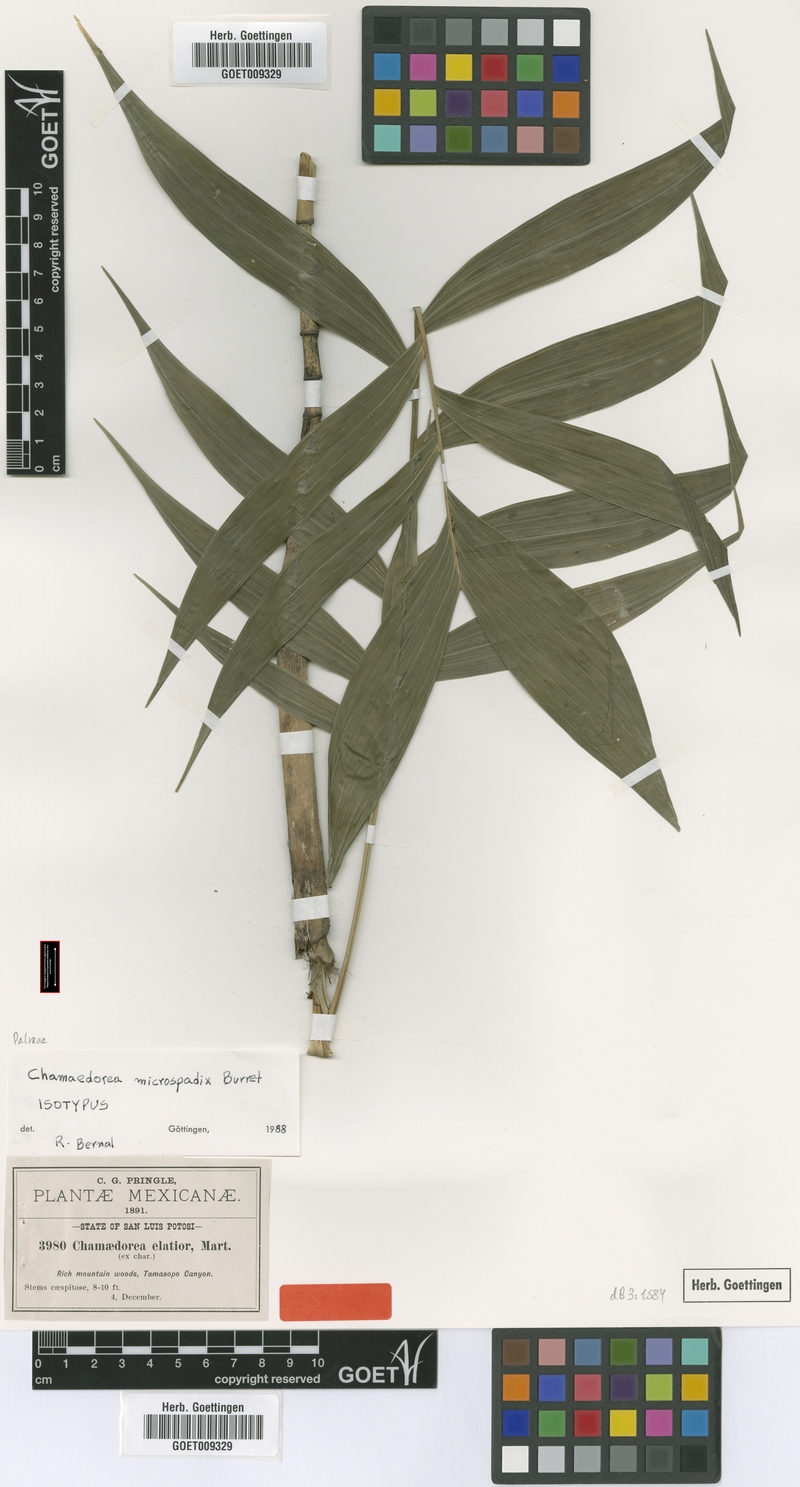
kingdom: Plantae
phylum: Tracheophyta
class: Liliopsida
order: Arecales
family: Arecaceae
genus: Chamaedorea
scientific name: Chamaedorea microspadix
